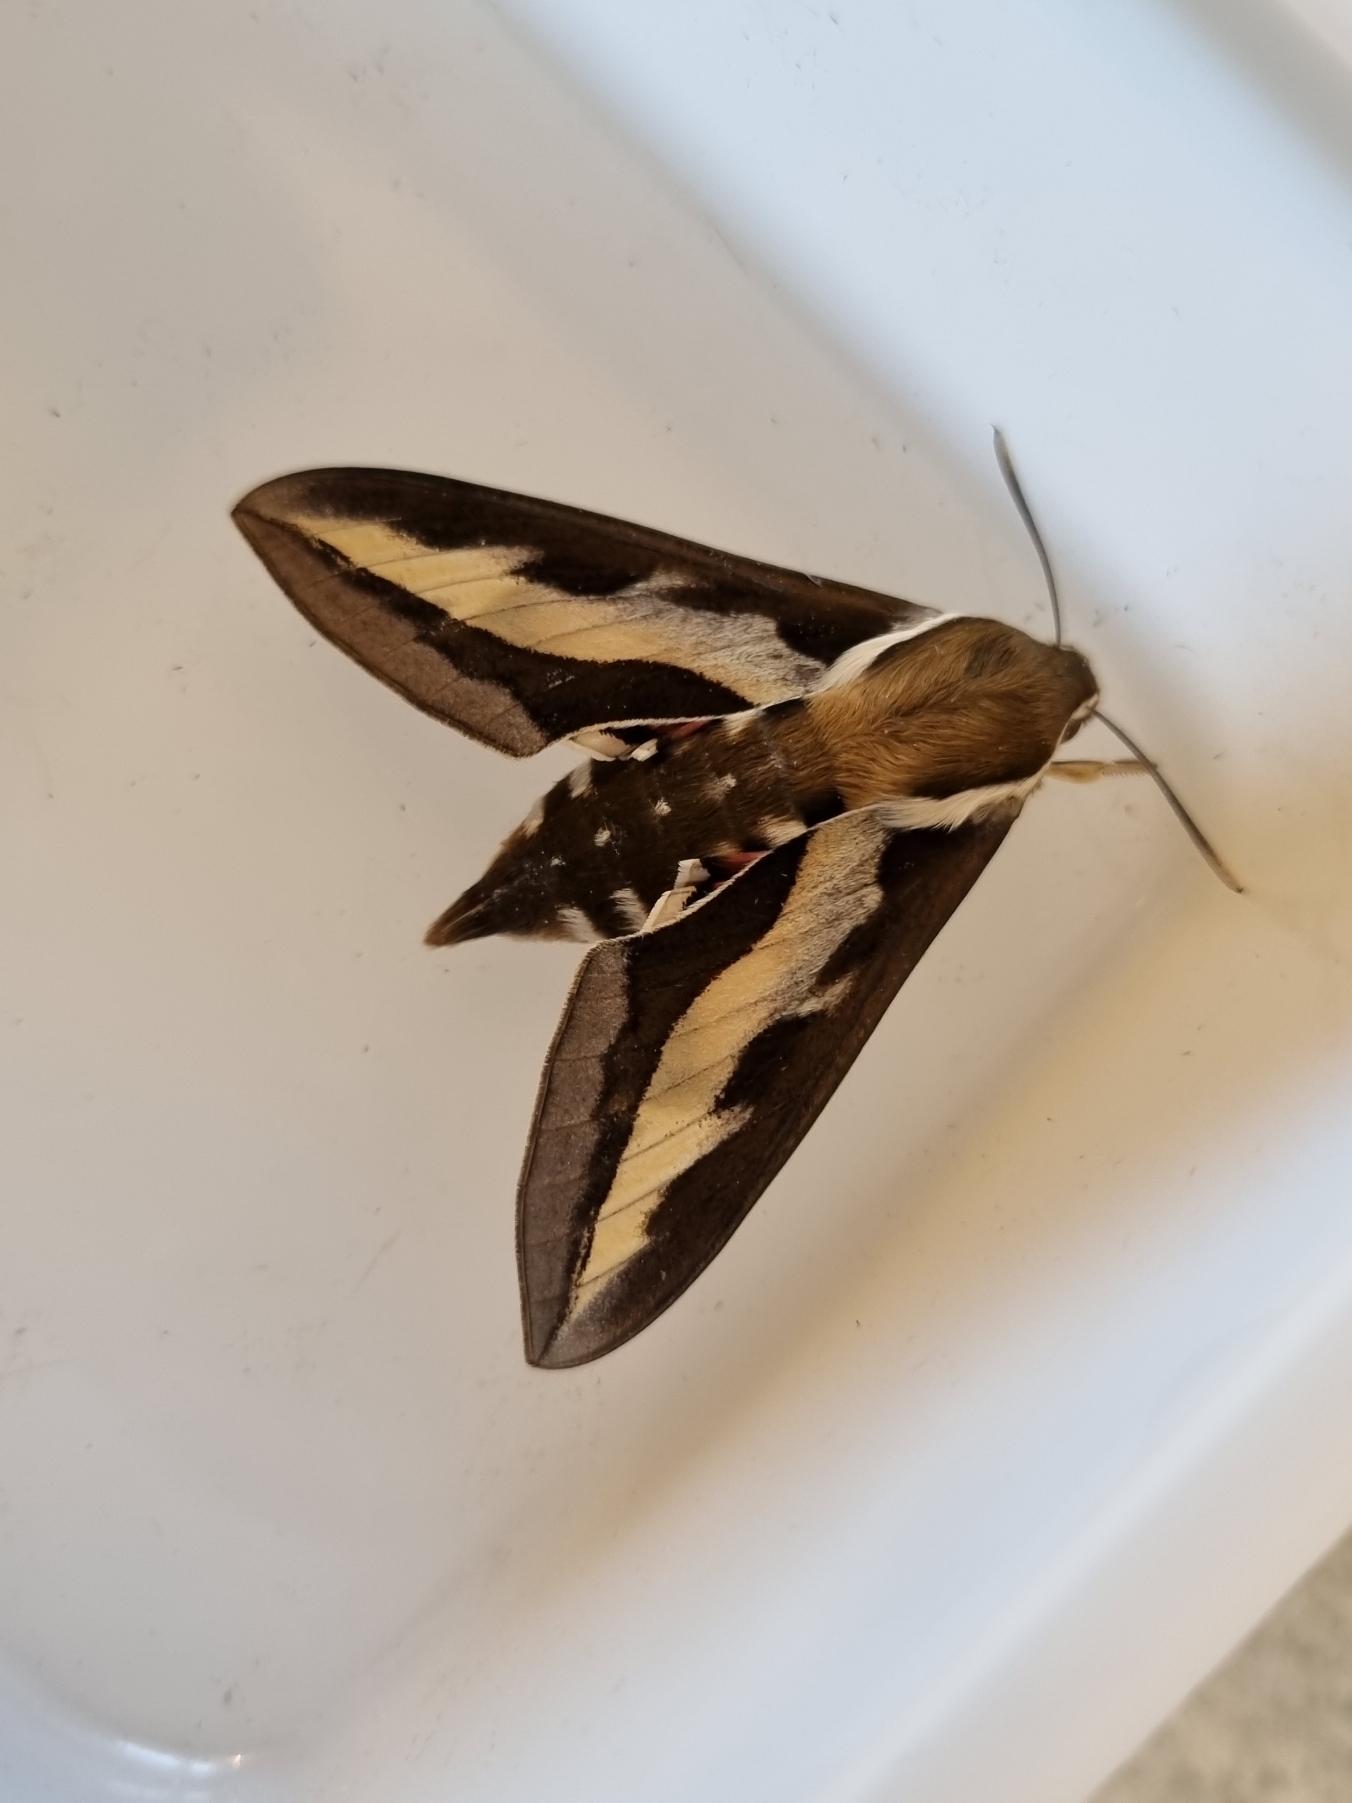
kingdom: Animalia
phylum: Arthropoda
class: Insecta
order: Lepidoptera
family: Sphingidae
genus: Hyles
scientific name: Hyles gallii
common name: Snerresværmer
